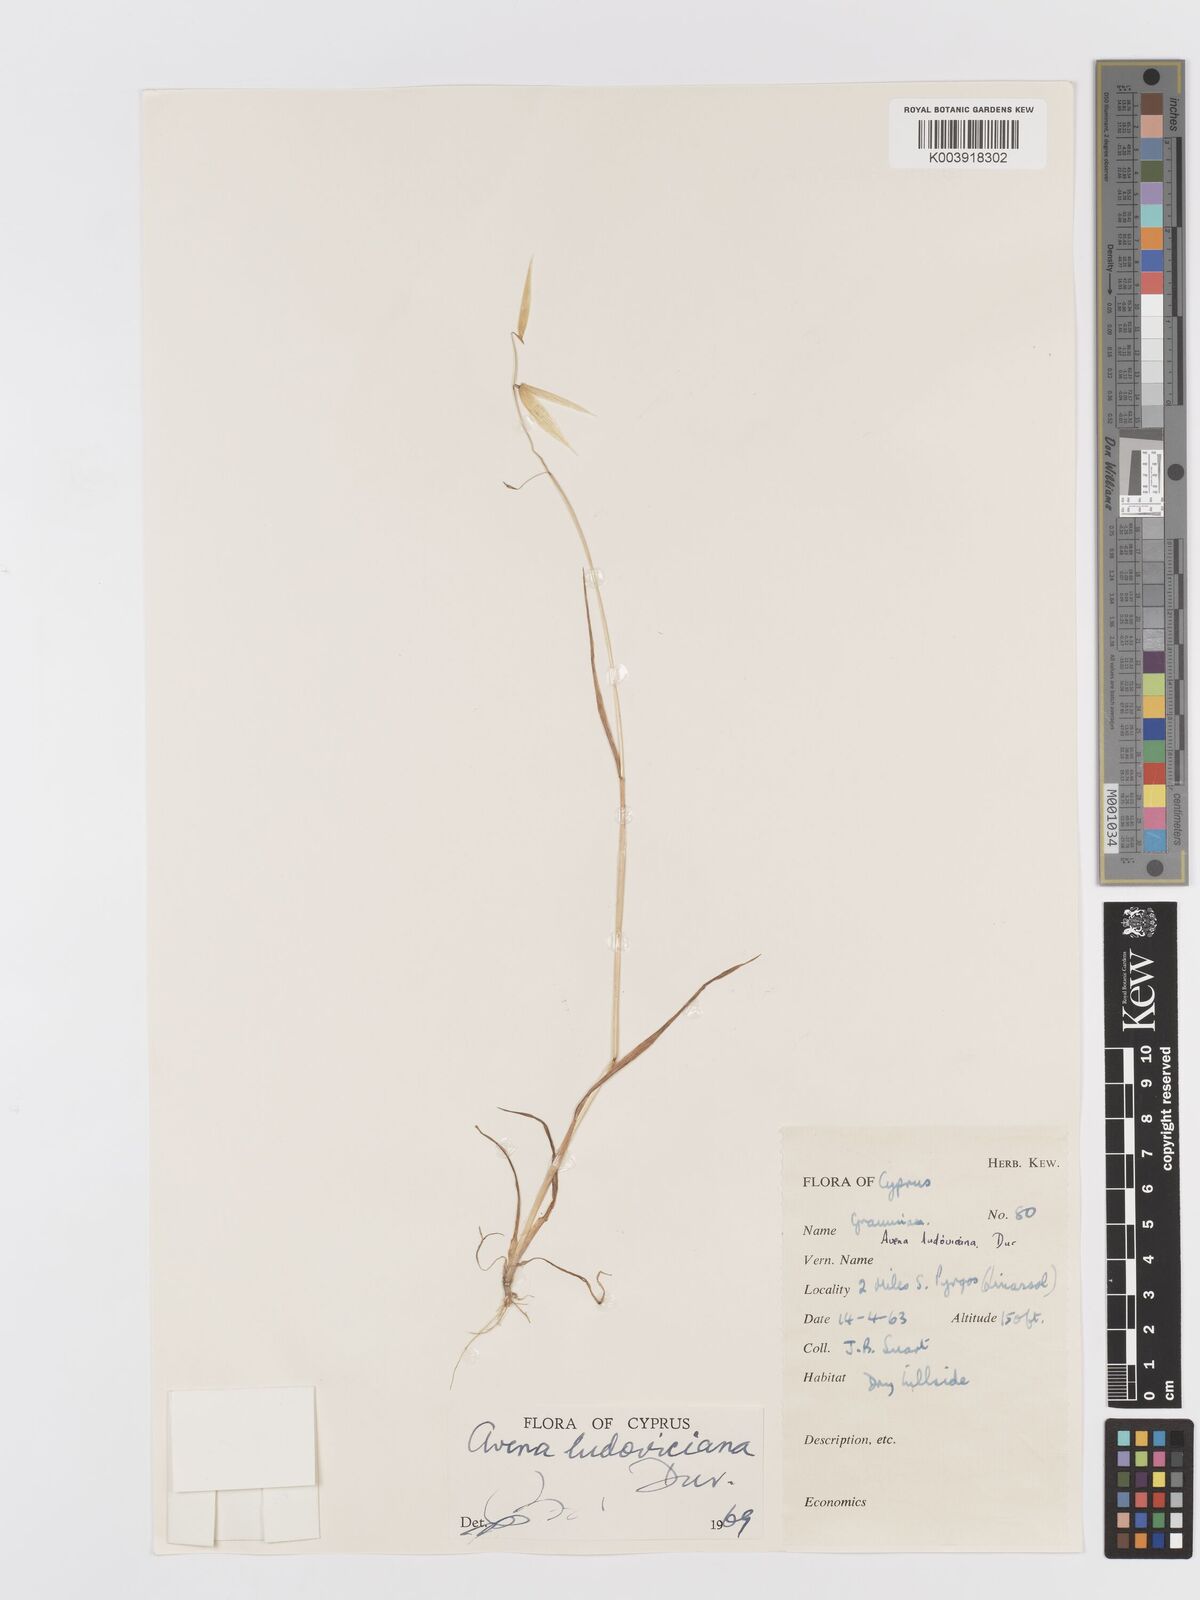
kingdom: Plantae
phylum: Tracheophyta
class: Liliopsida
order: Poales
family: Poaceae
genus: Avena
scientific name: Avena sterilis
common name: Animated oat
